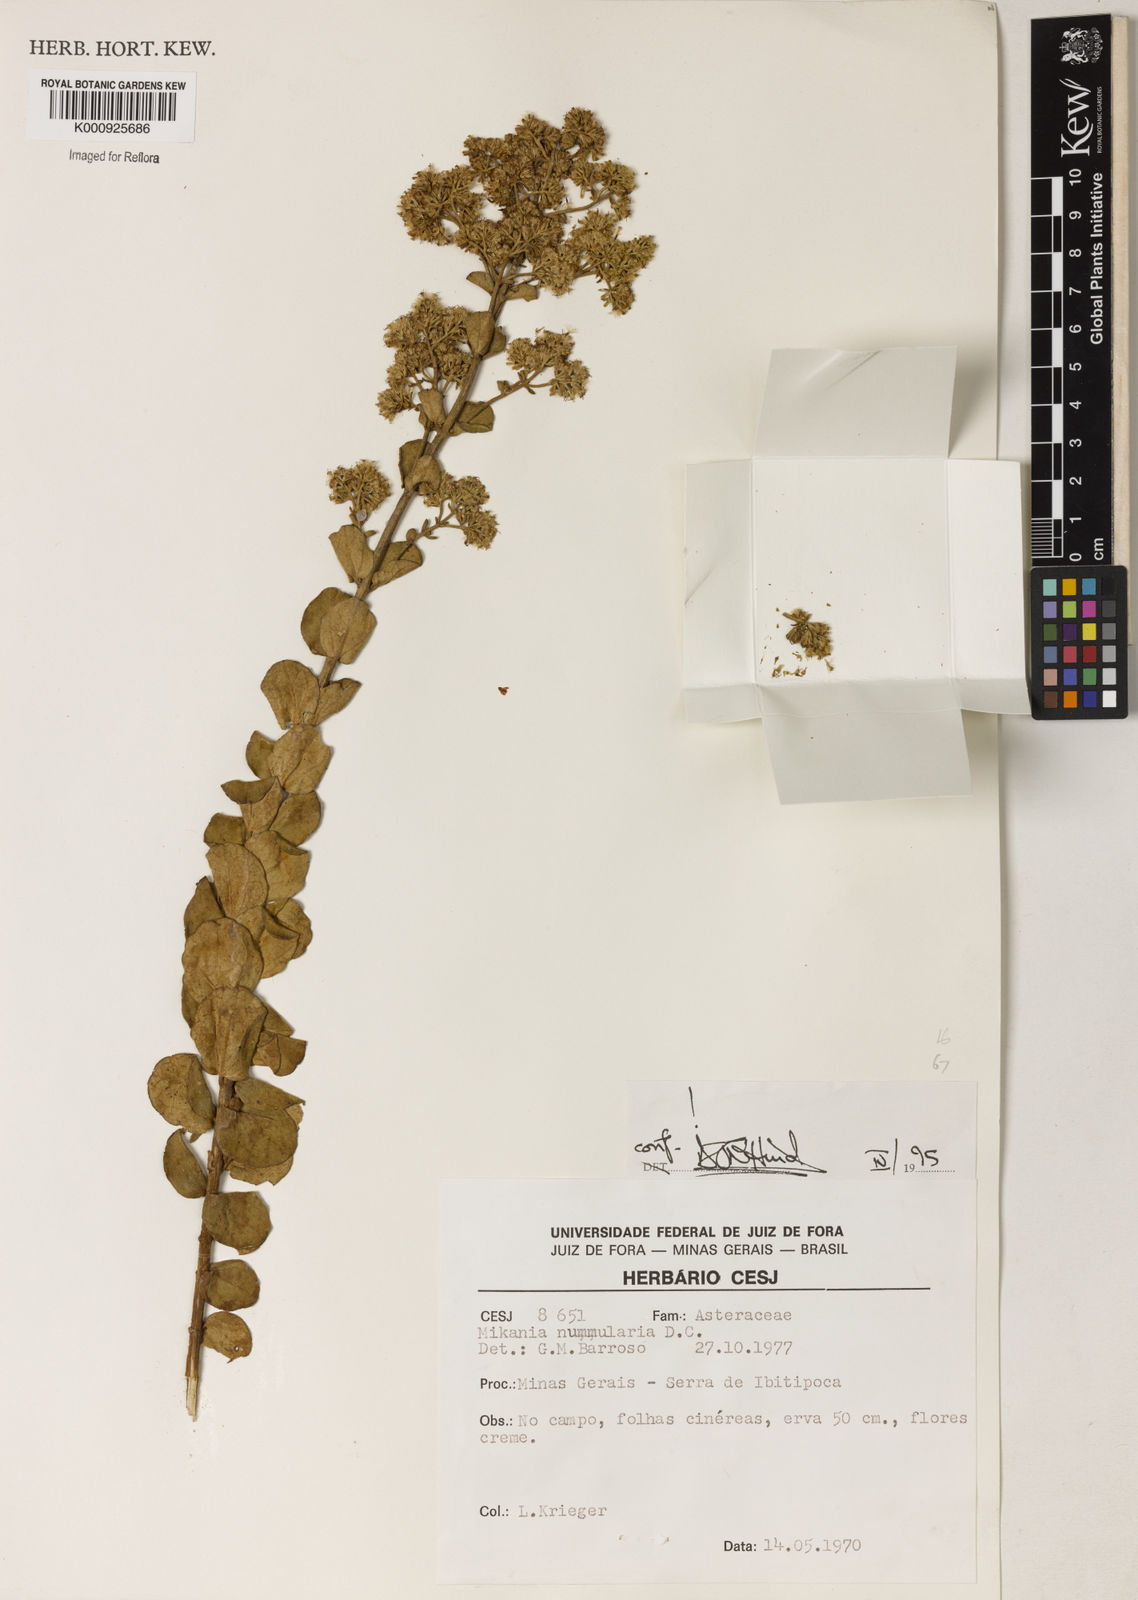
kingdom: Plantae
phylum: Tracheophyta
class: Magnoliopsida
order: Asterales
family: Asteraceae
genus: Mikania
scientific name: Mikania nummularia
